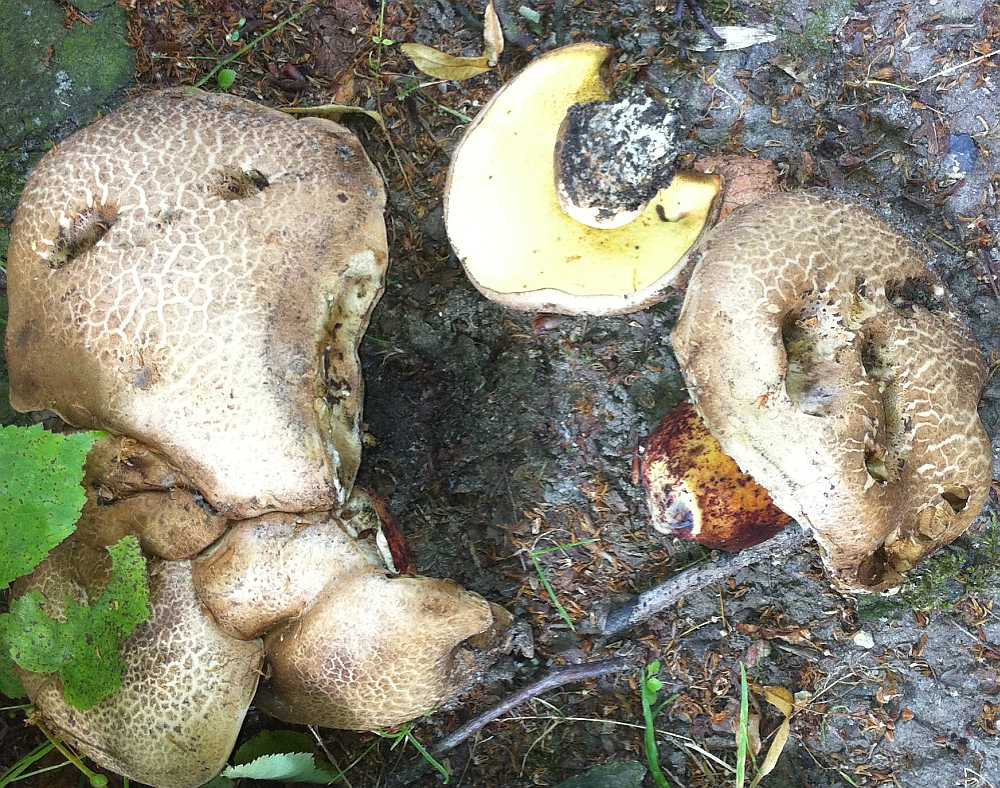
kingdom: Fungi
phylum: Basidiomycota
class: Agaricomycetes
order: Boletales
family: Boletaceae
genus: Caloboletus
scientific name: Caloboletus radicans
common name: rod-rørhat
